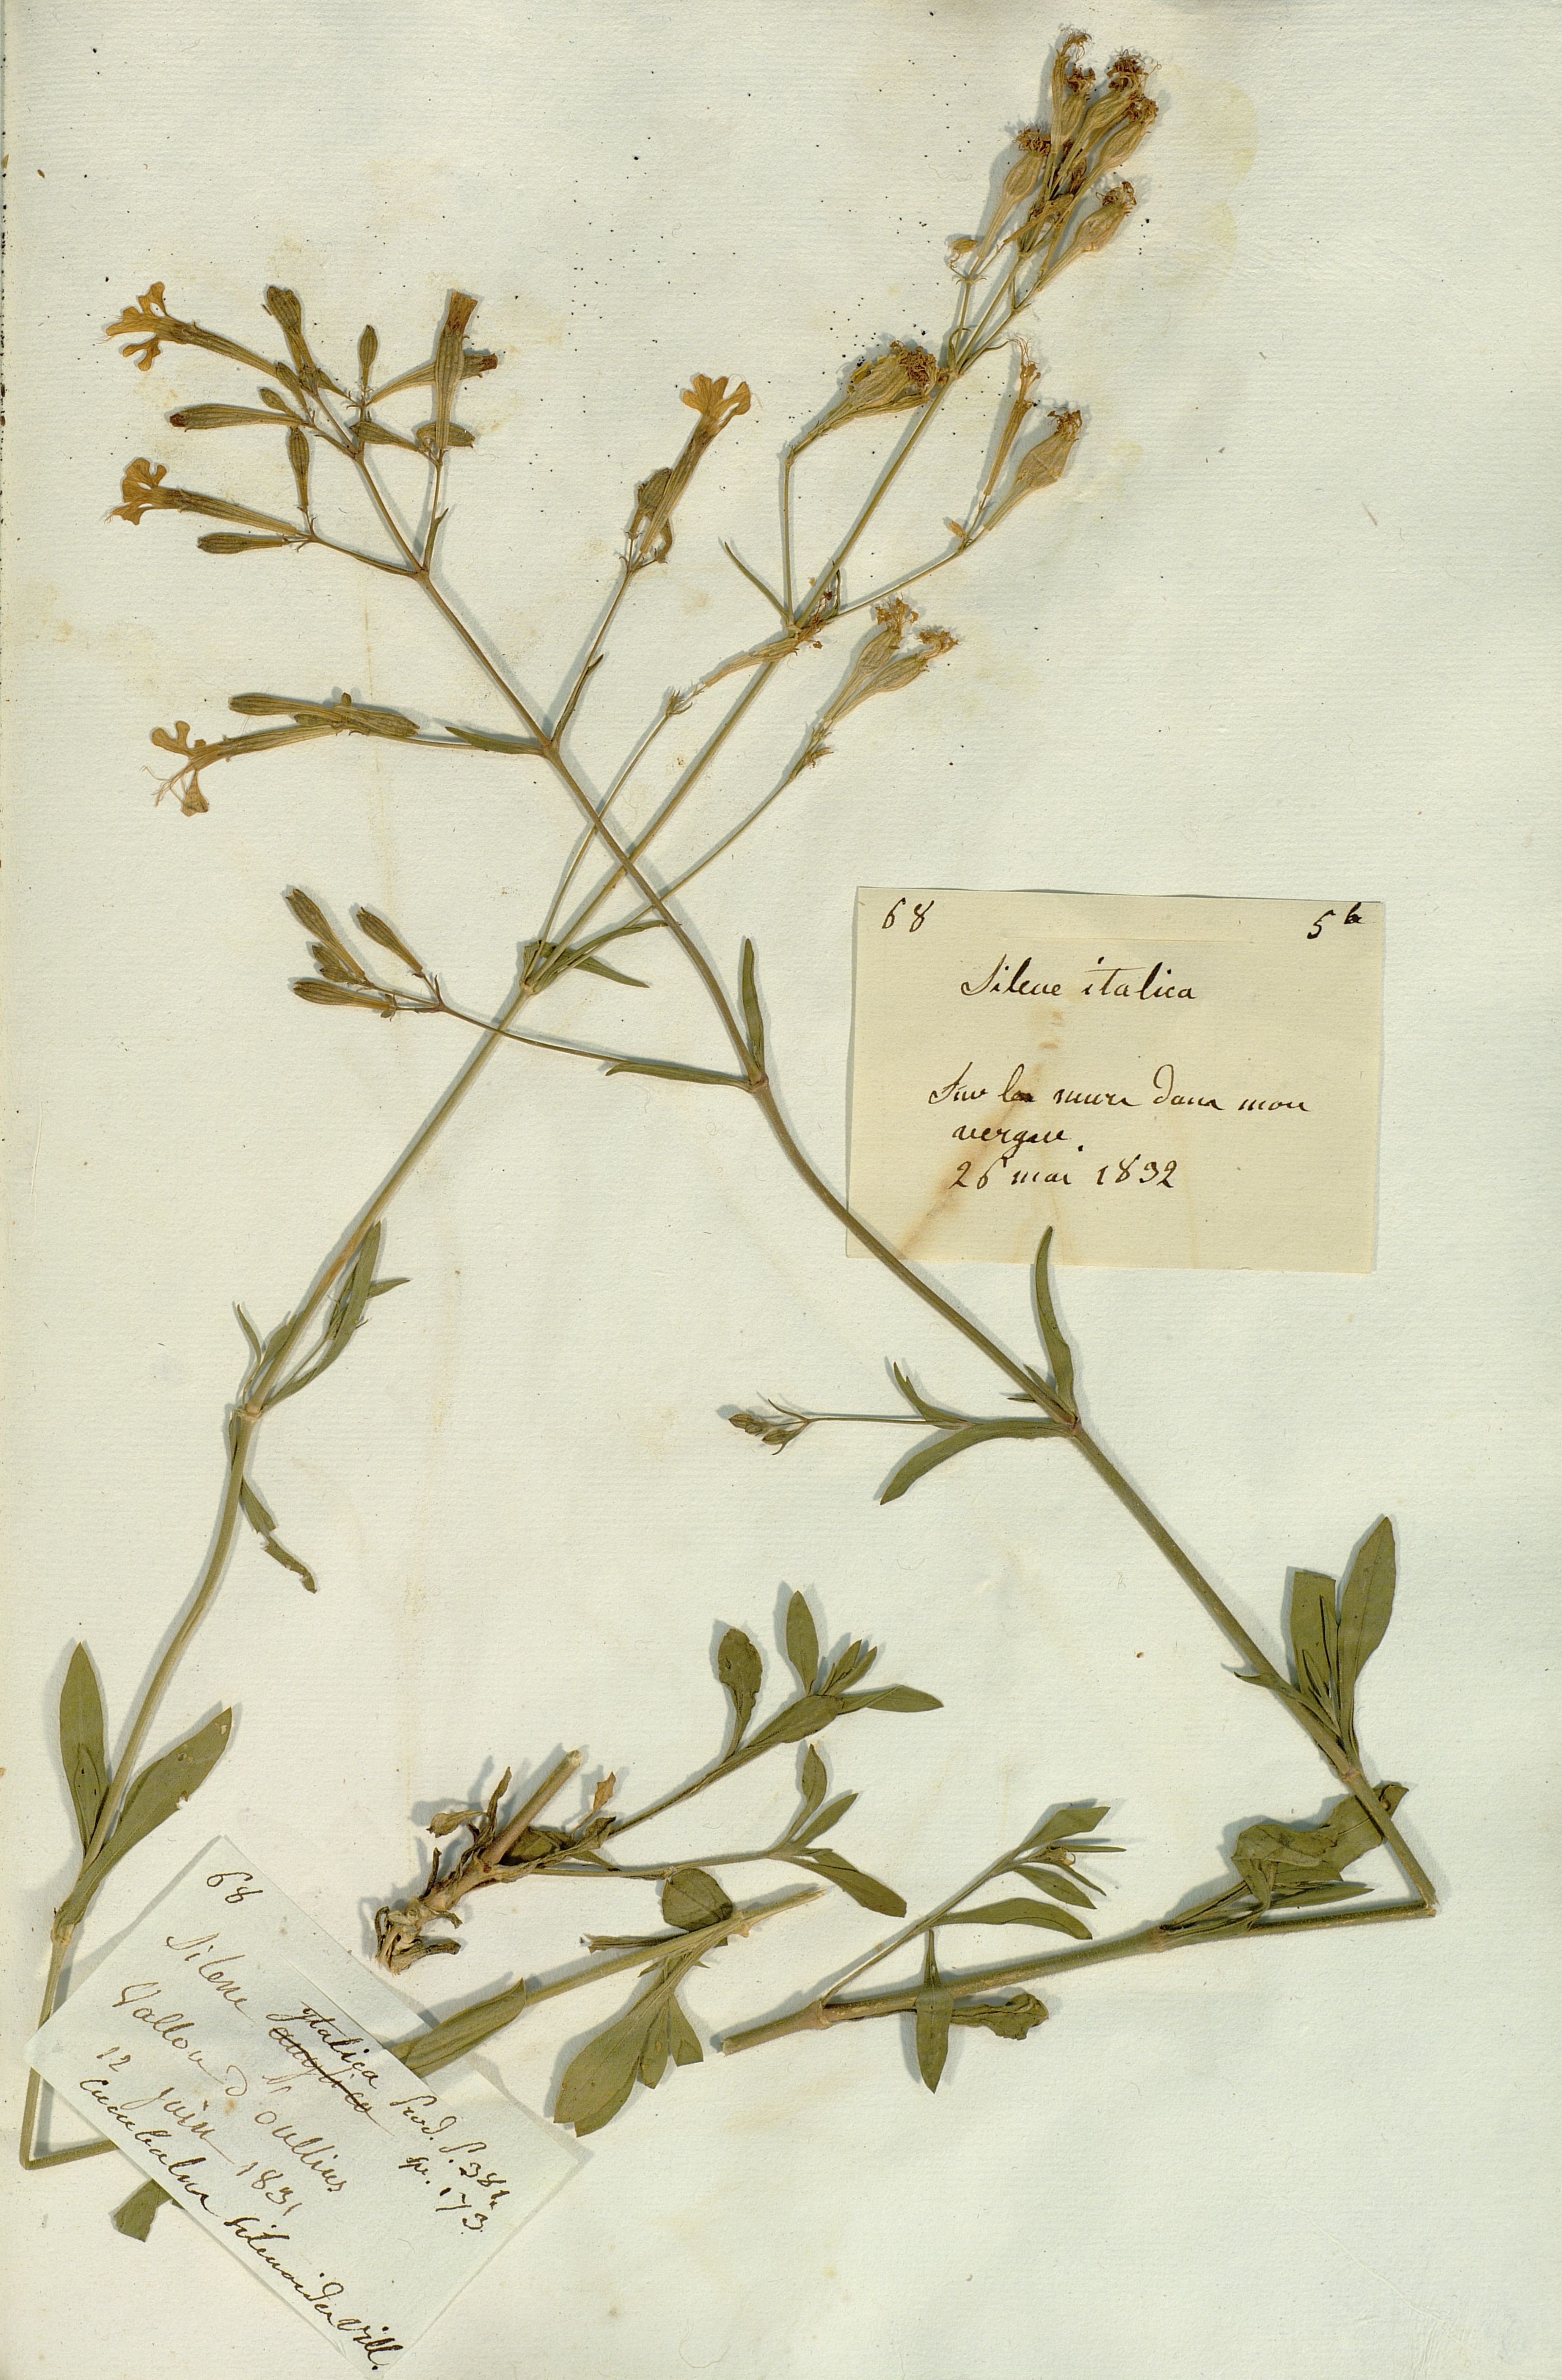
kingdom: Plantae
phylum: Tracheophyta
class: Magnoliopsida
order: Caryophyllales
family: Caryophyllaceae
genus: Silene
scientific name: Silene italica
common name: Italian catchfly
